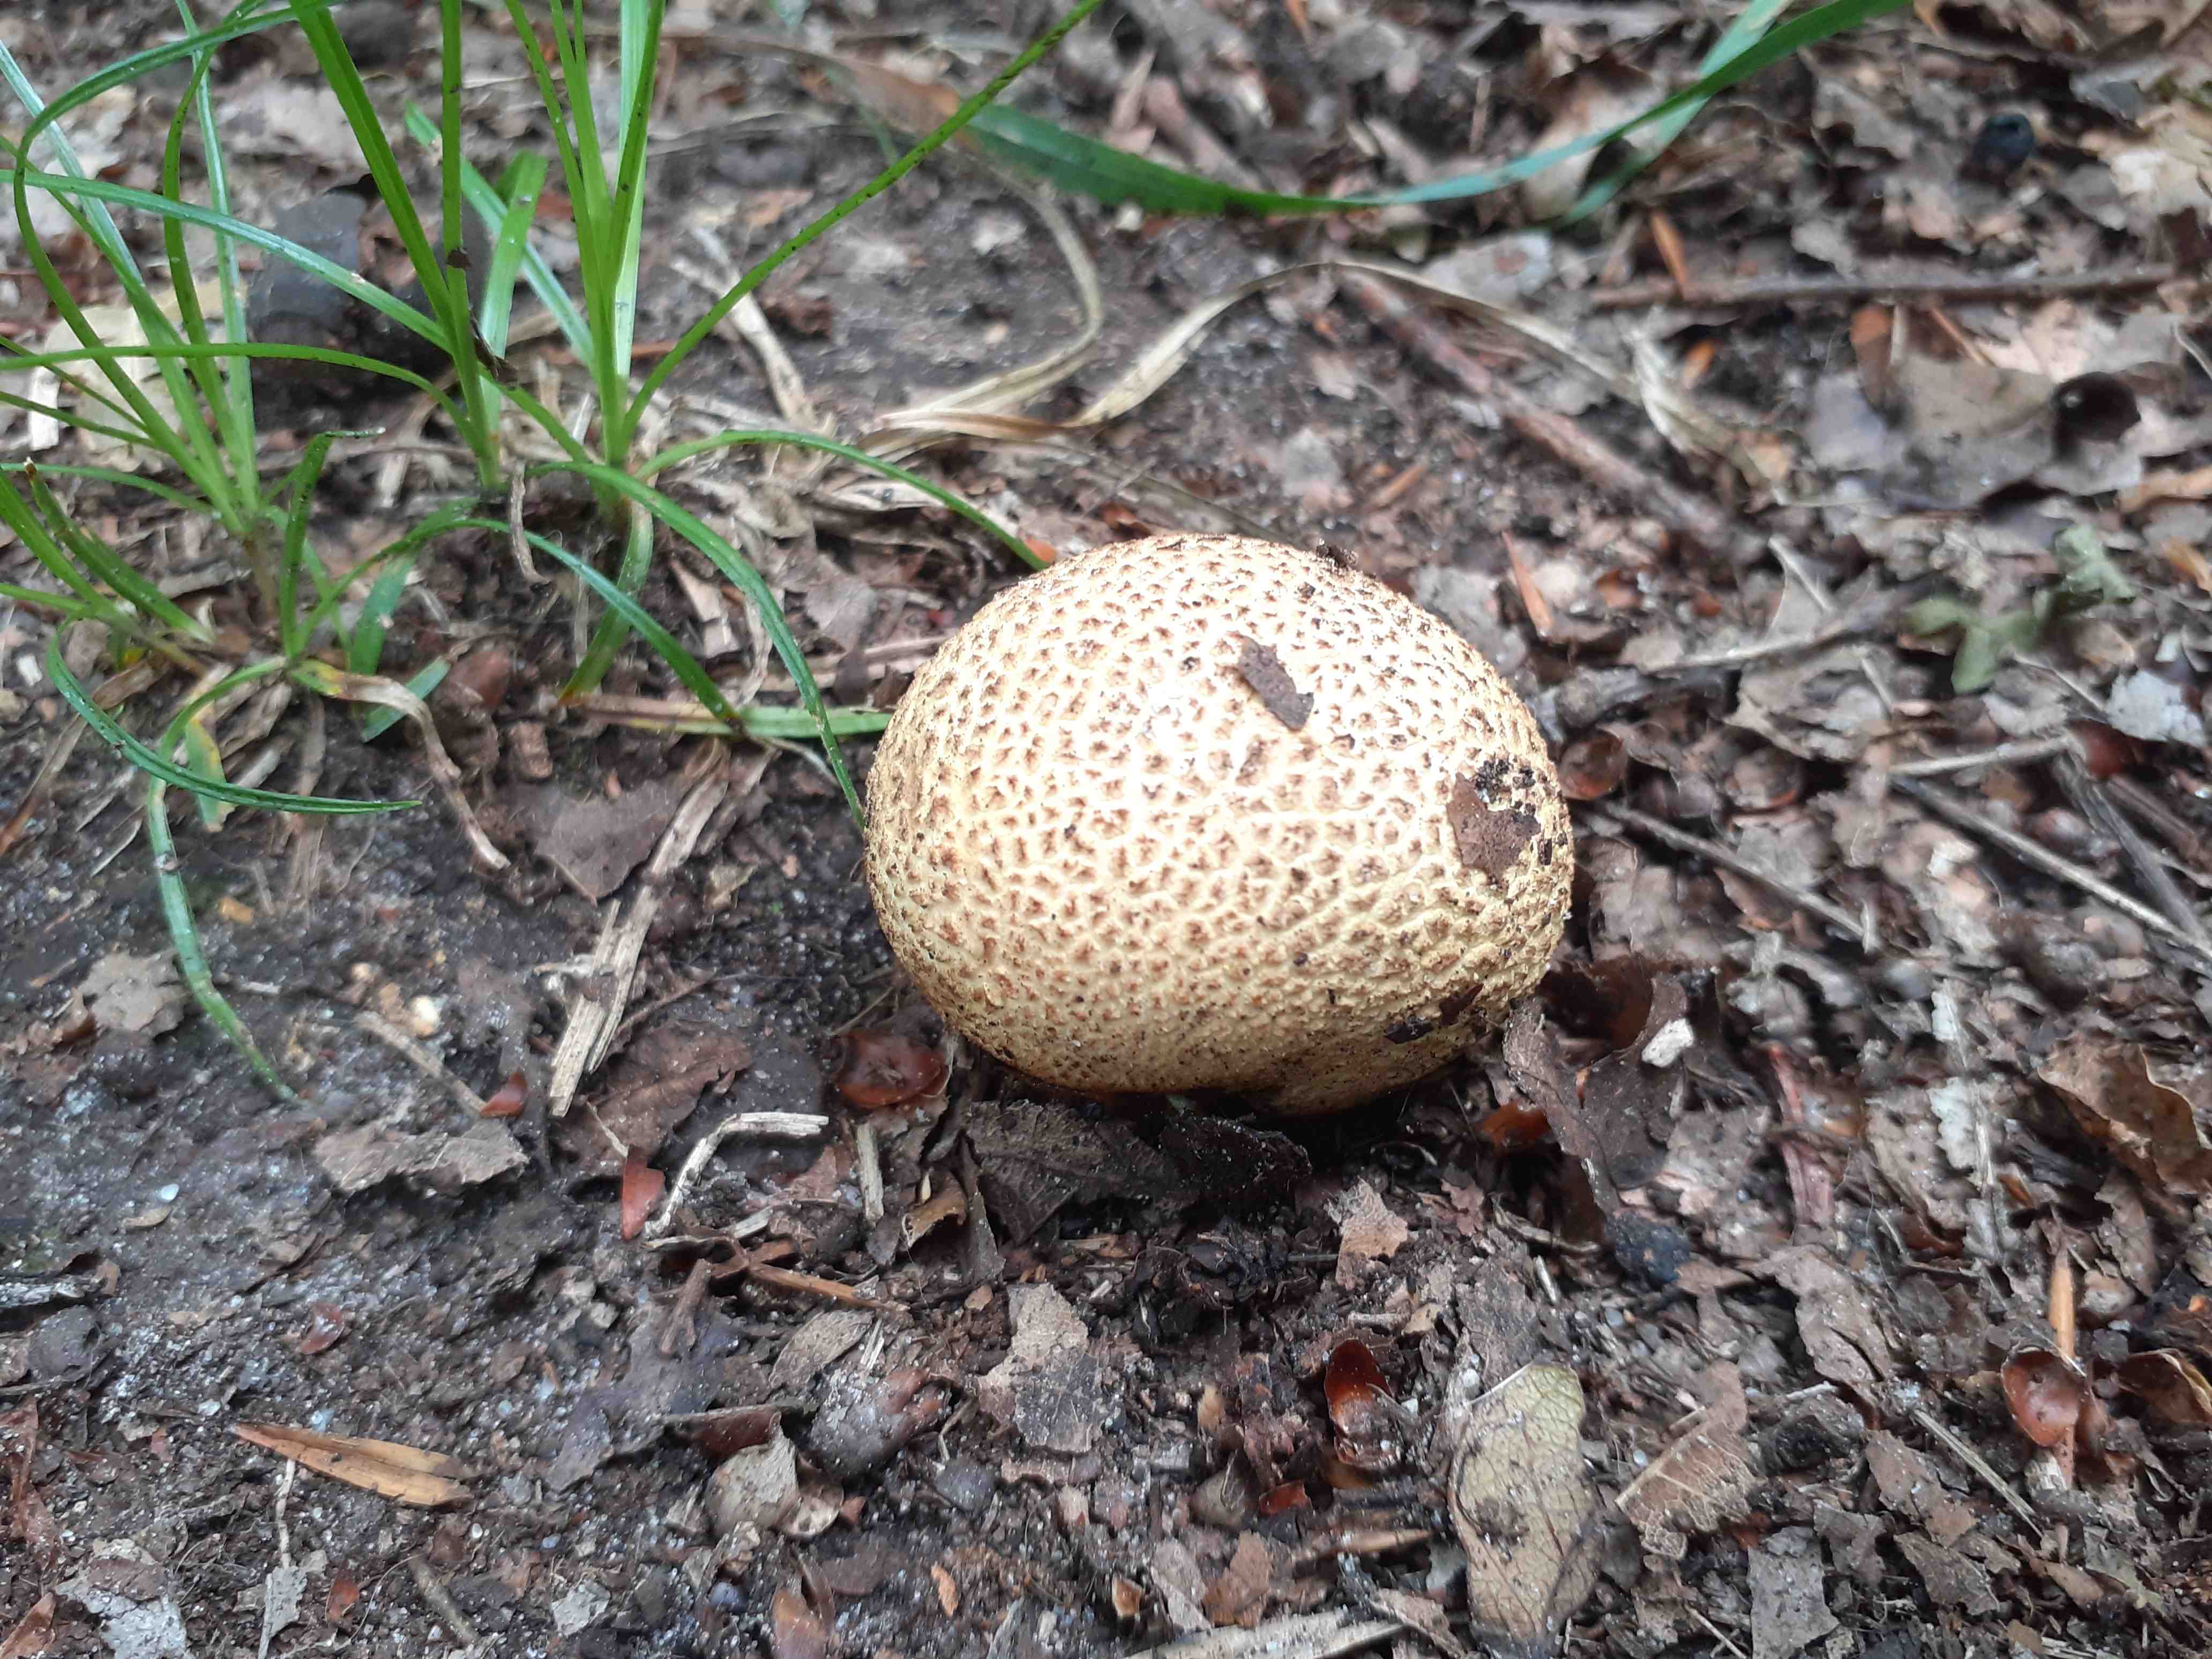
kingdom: Fungi
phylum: Basidiomycota
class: Agaricomycetes
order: Boletales
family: Sclerodermataceae
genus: Scleroderma
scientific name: Scleroderma citrinum
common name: almindelig bruskbold
